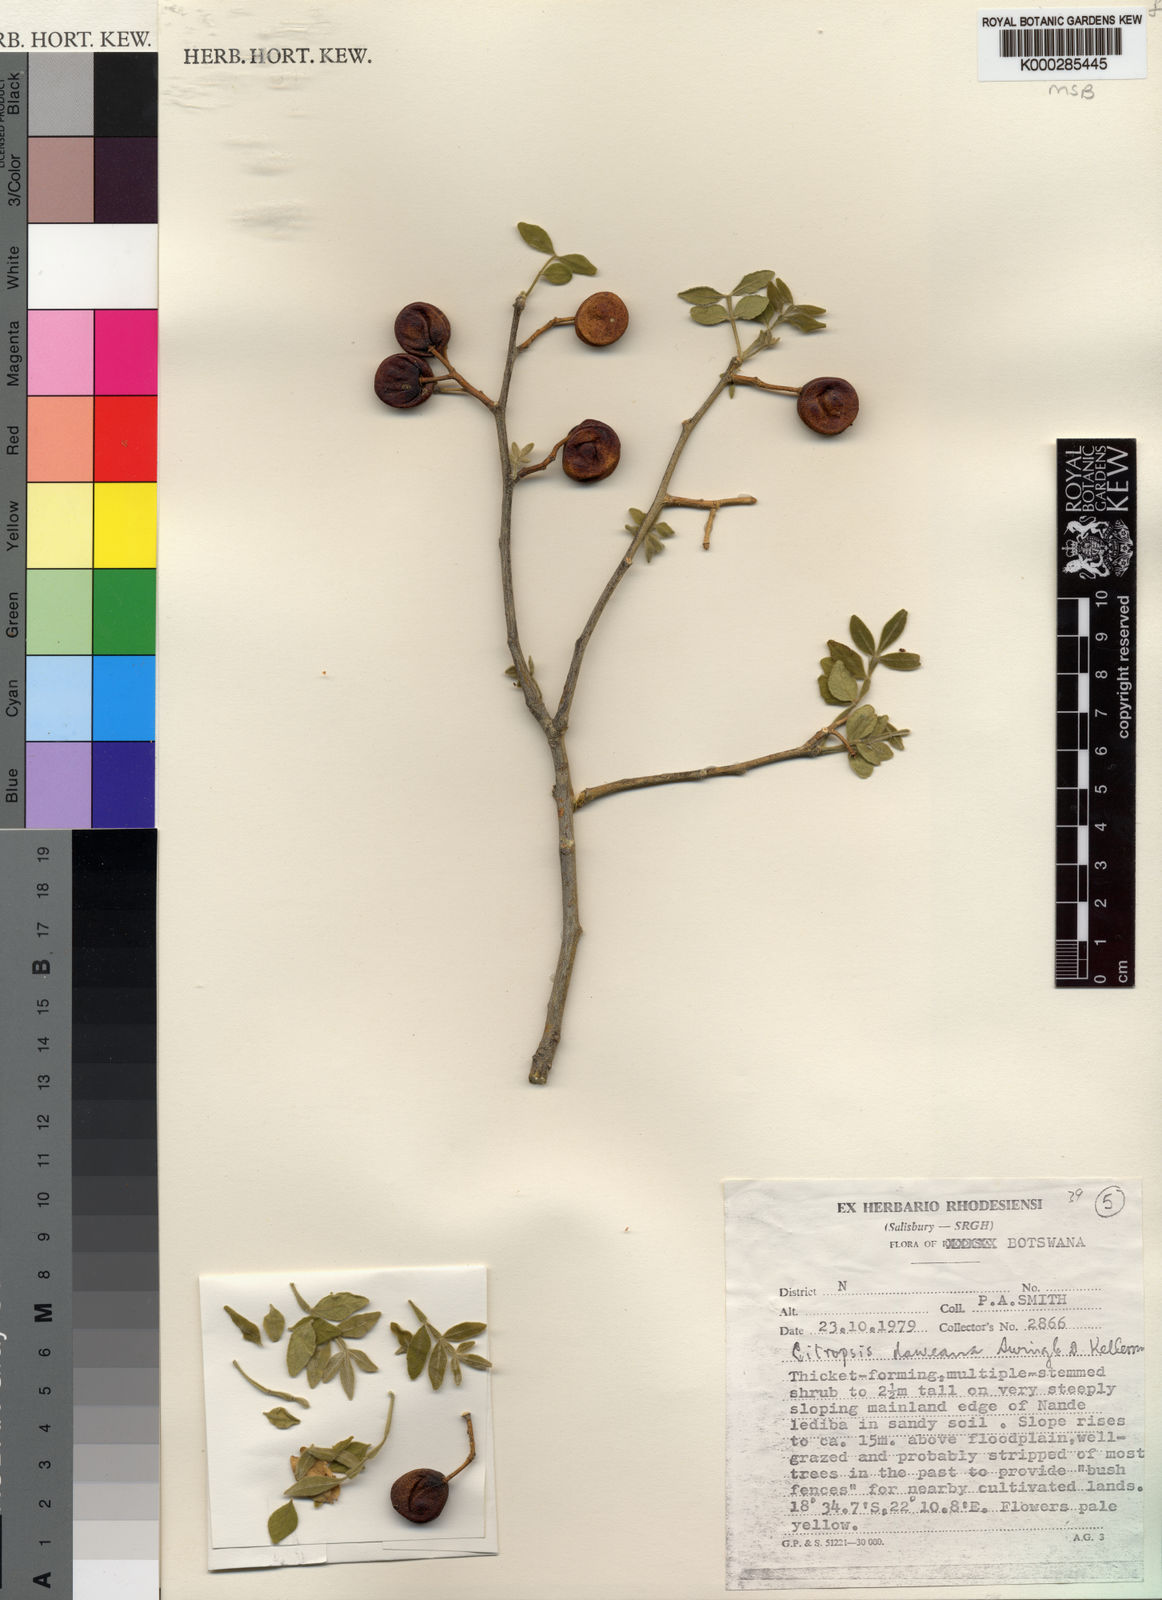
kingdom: Plantae
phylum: Tracheophyta
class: Magnoliopsida
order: Sapindales
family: Rutaceae
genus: Citropsis
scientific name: Citropsis daweana
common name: Mozambique-cherry-orange
